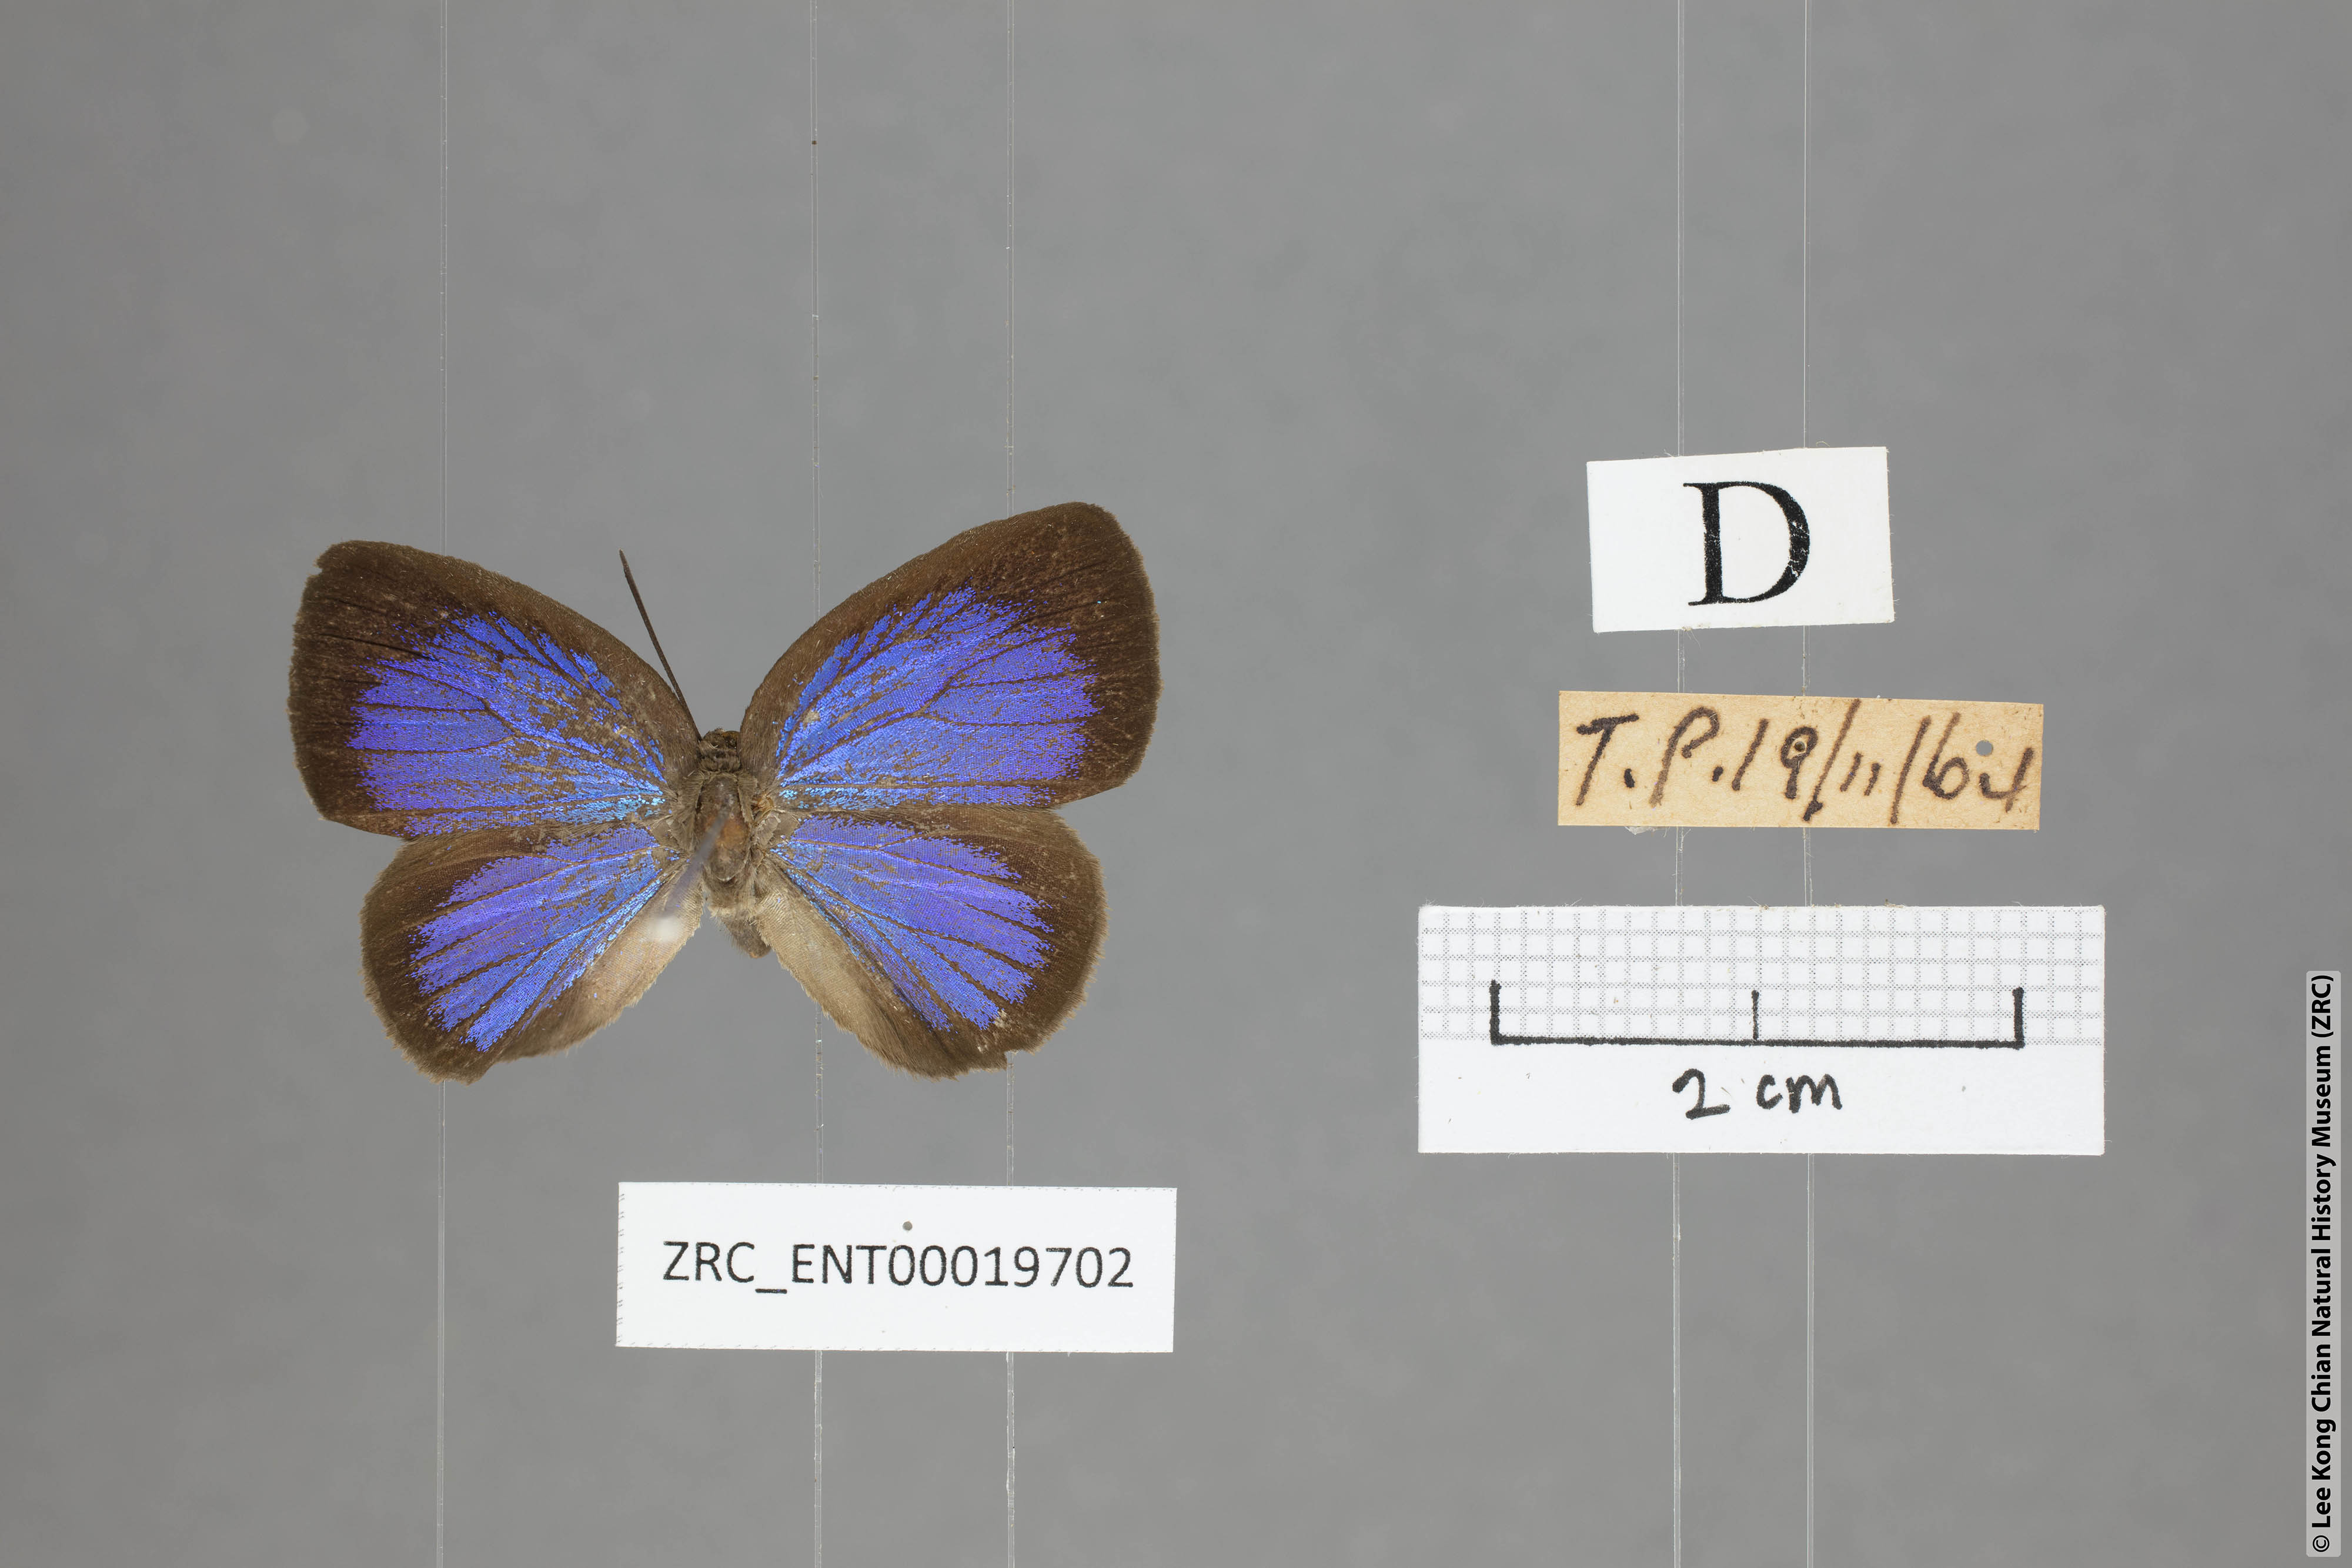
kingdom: Animalia
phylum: Arthropoda
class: Insecta
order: Lepidoptera
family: Lycaenidae
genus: Arhopala
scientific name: Arhopala muta
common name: Mutal oakblue
